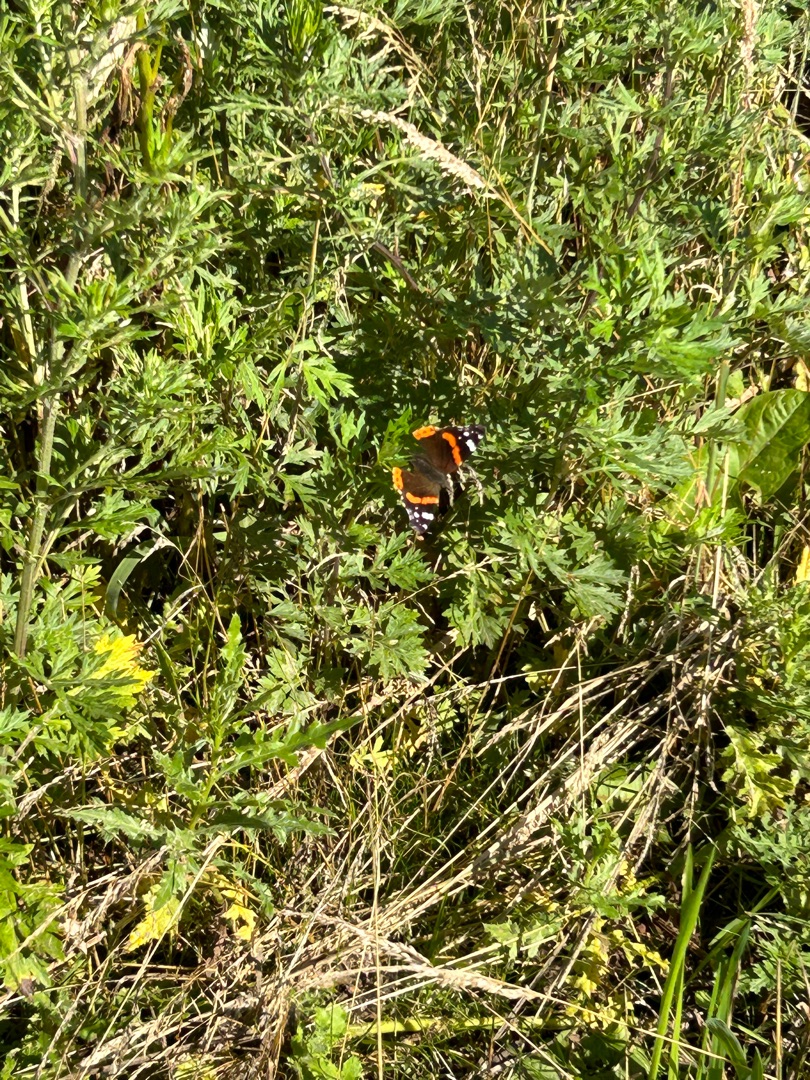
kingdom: Animalia
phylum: Arthropoda
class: Insecta
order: Lepidoptera
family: Nymphalidae
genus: Vanessa
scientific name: Vanessa atalanta
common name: Admiral
